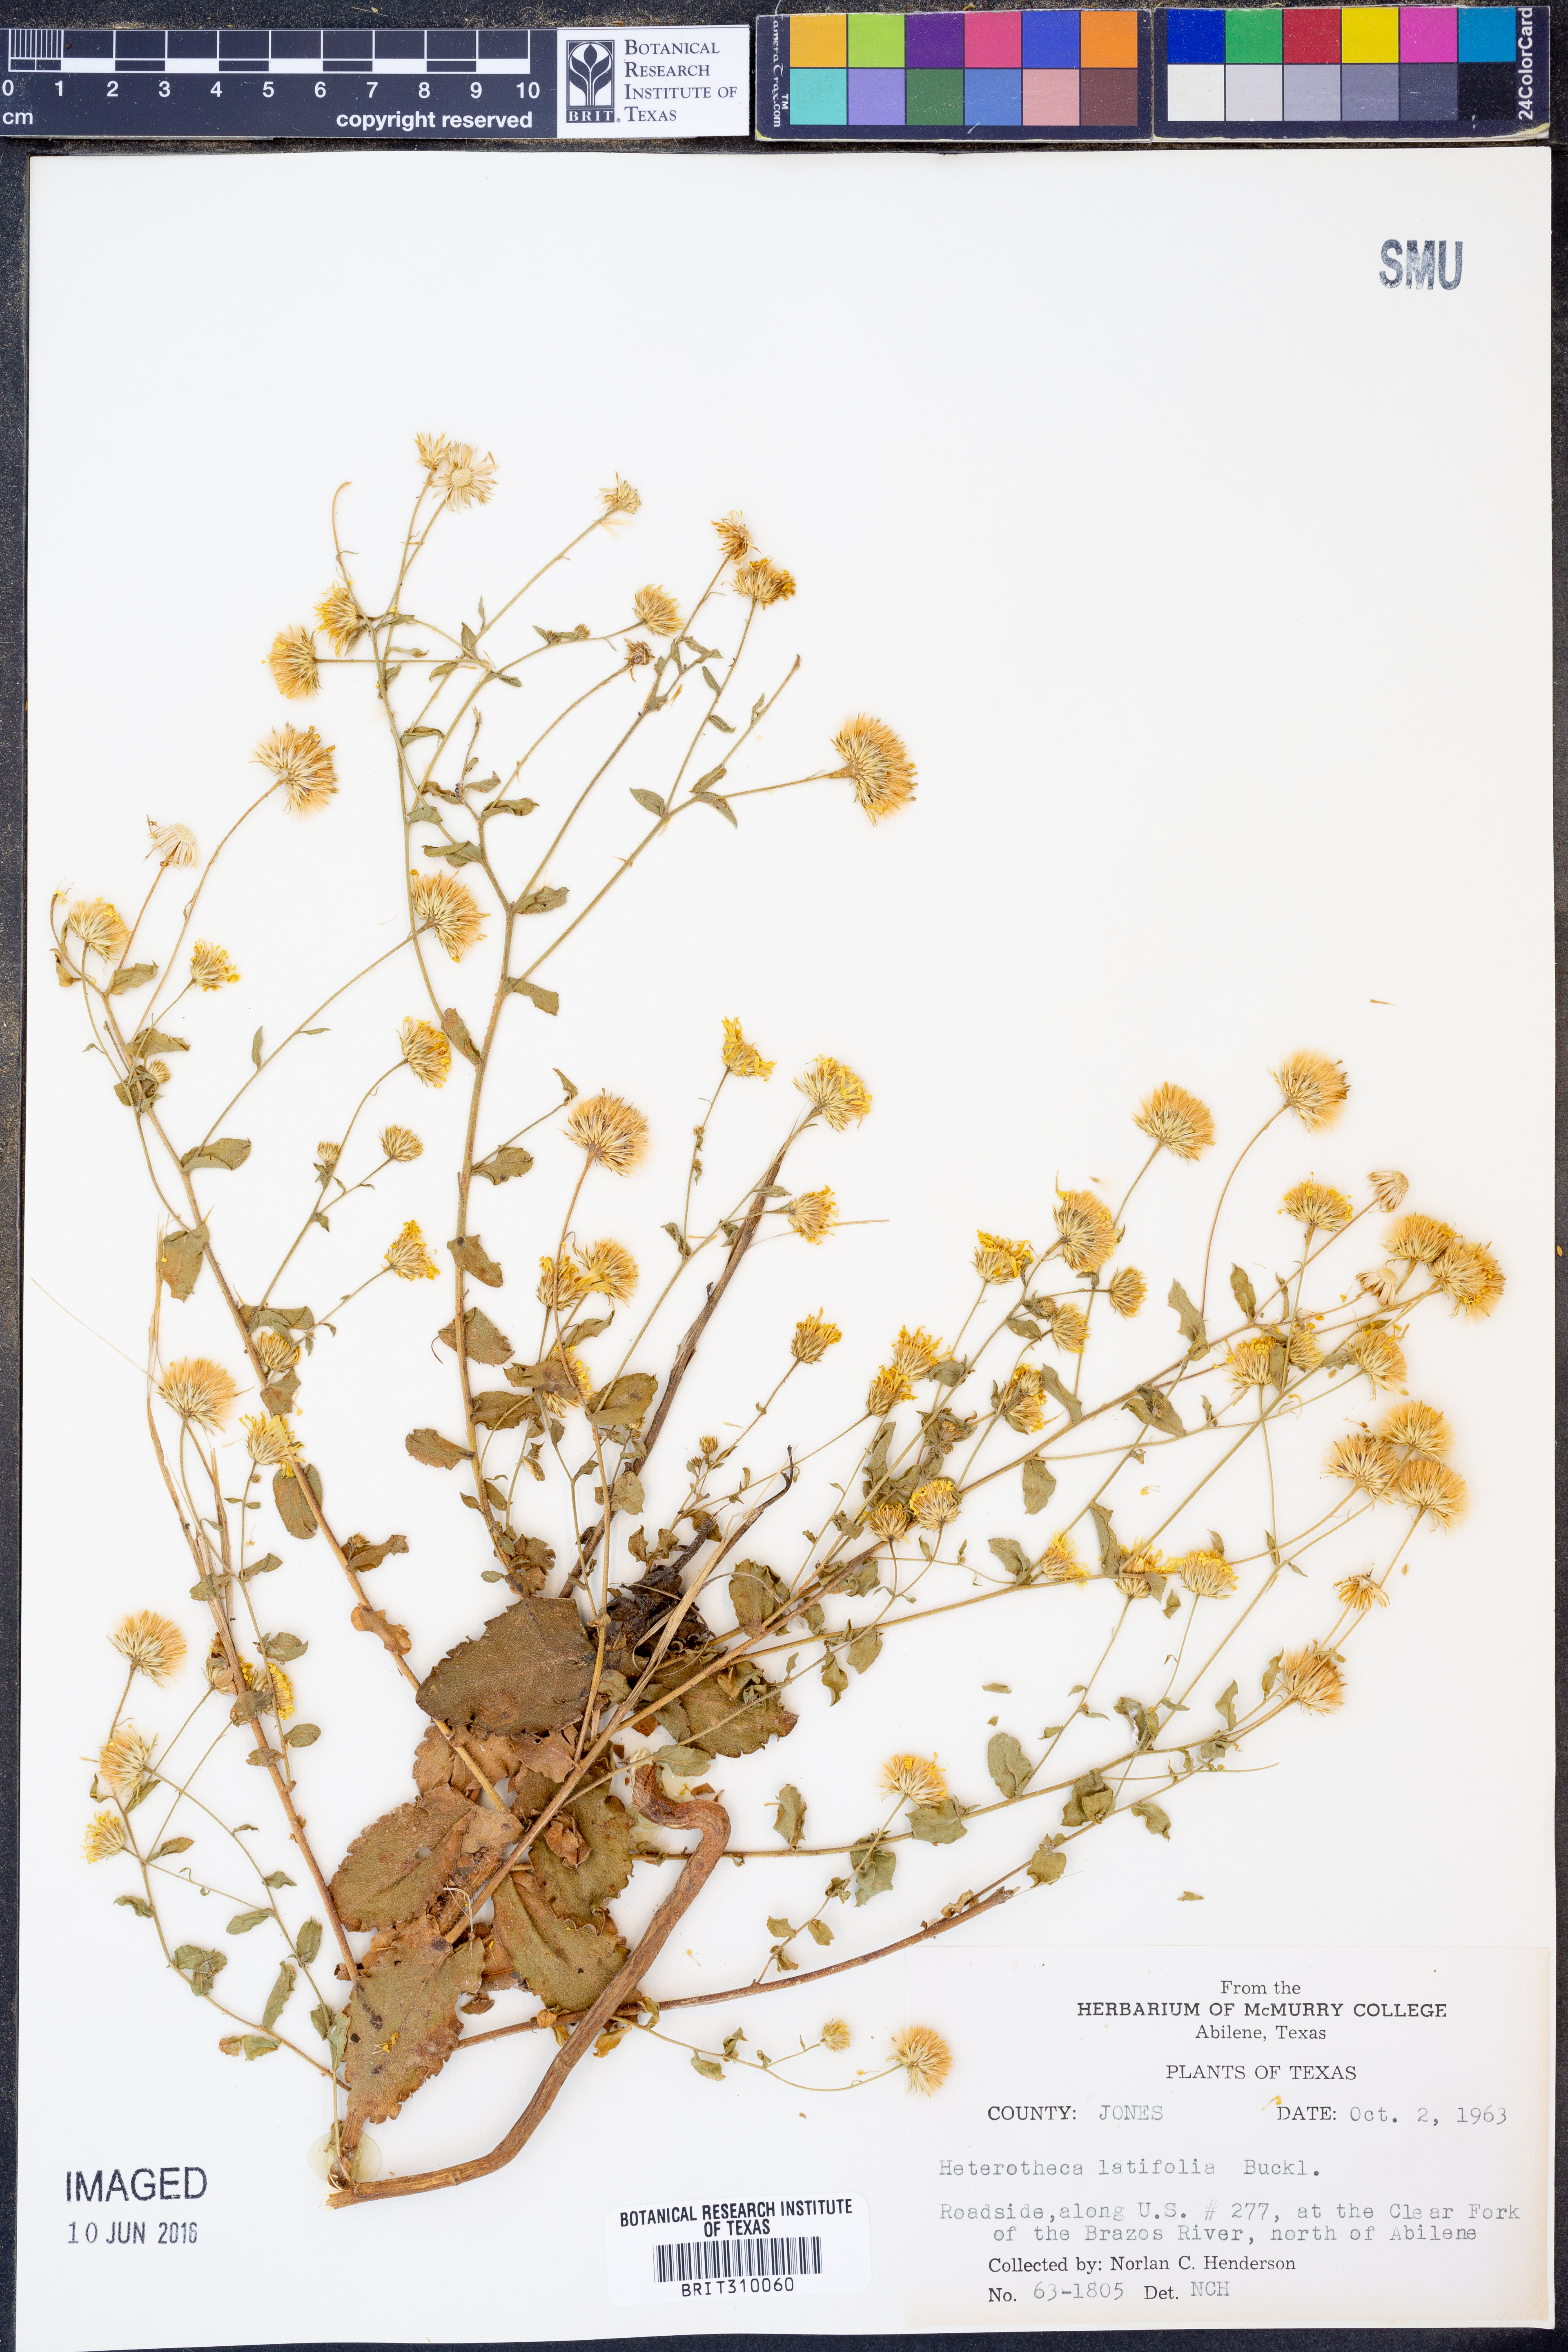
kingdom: Plantae
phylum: Tracheophyta
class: Magnoliopsida
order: Asterales
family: Asteraceae
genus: Heterotheca
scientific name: Heterotheca subaxillaris
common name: Camphorweed
